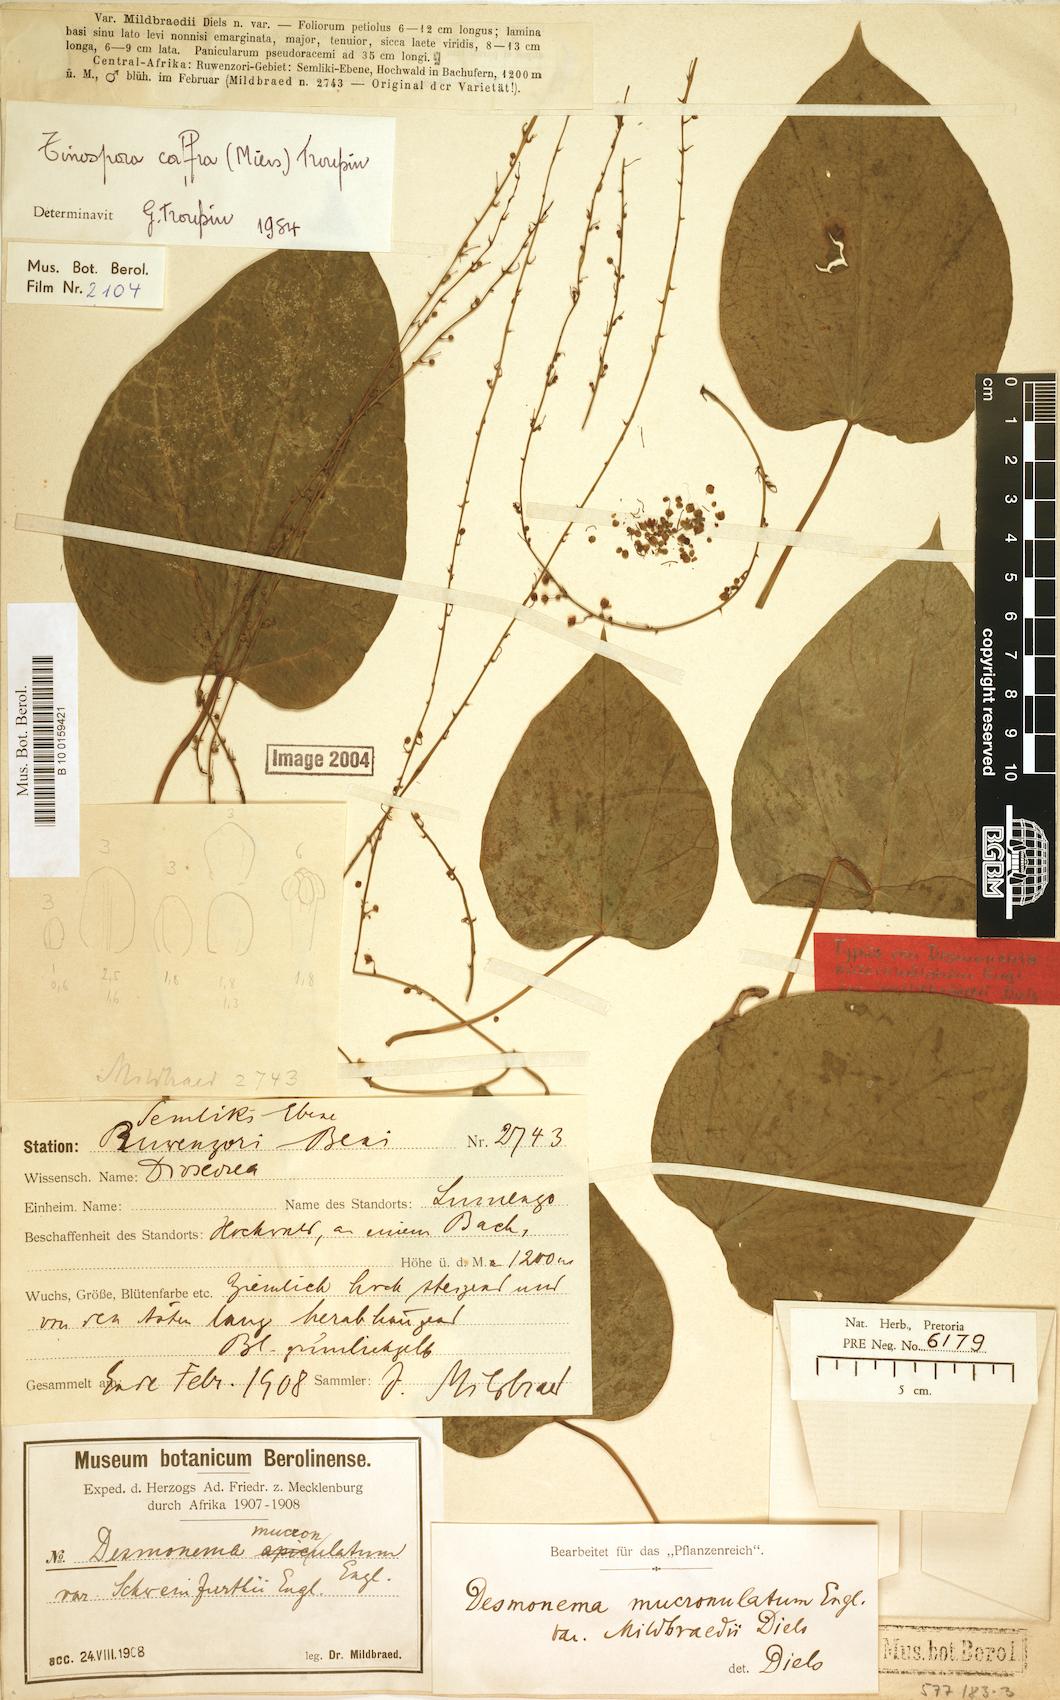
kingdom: Plantae
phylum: Tracheophyta
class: Magnoliopsida
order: Ranunculales
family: Menispermaceae
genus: Tinospora
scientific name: Tinospora caffra
